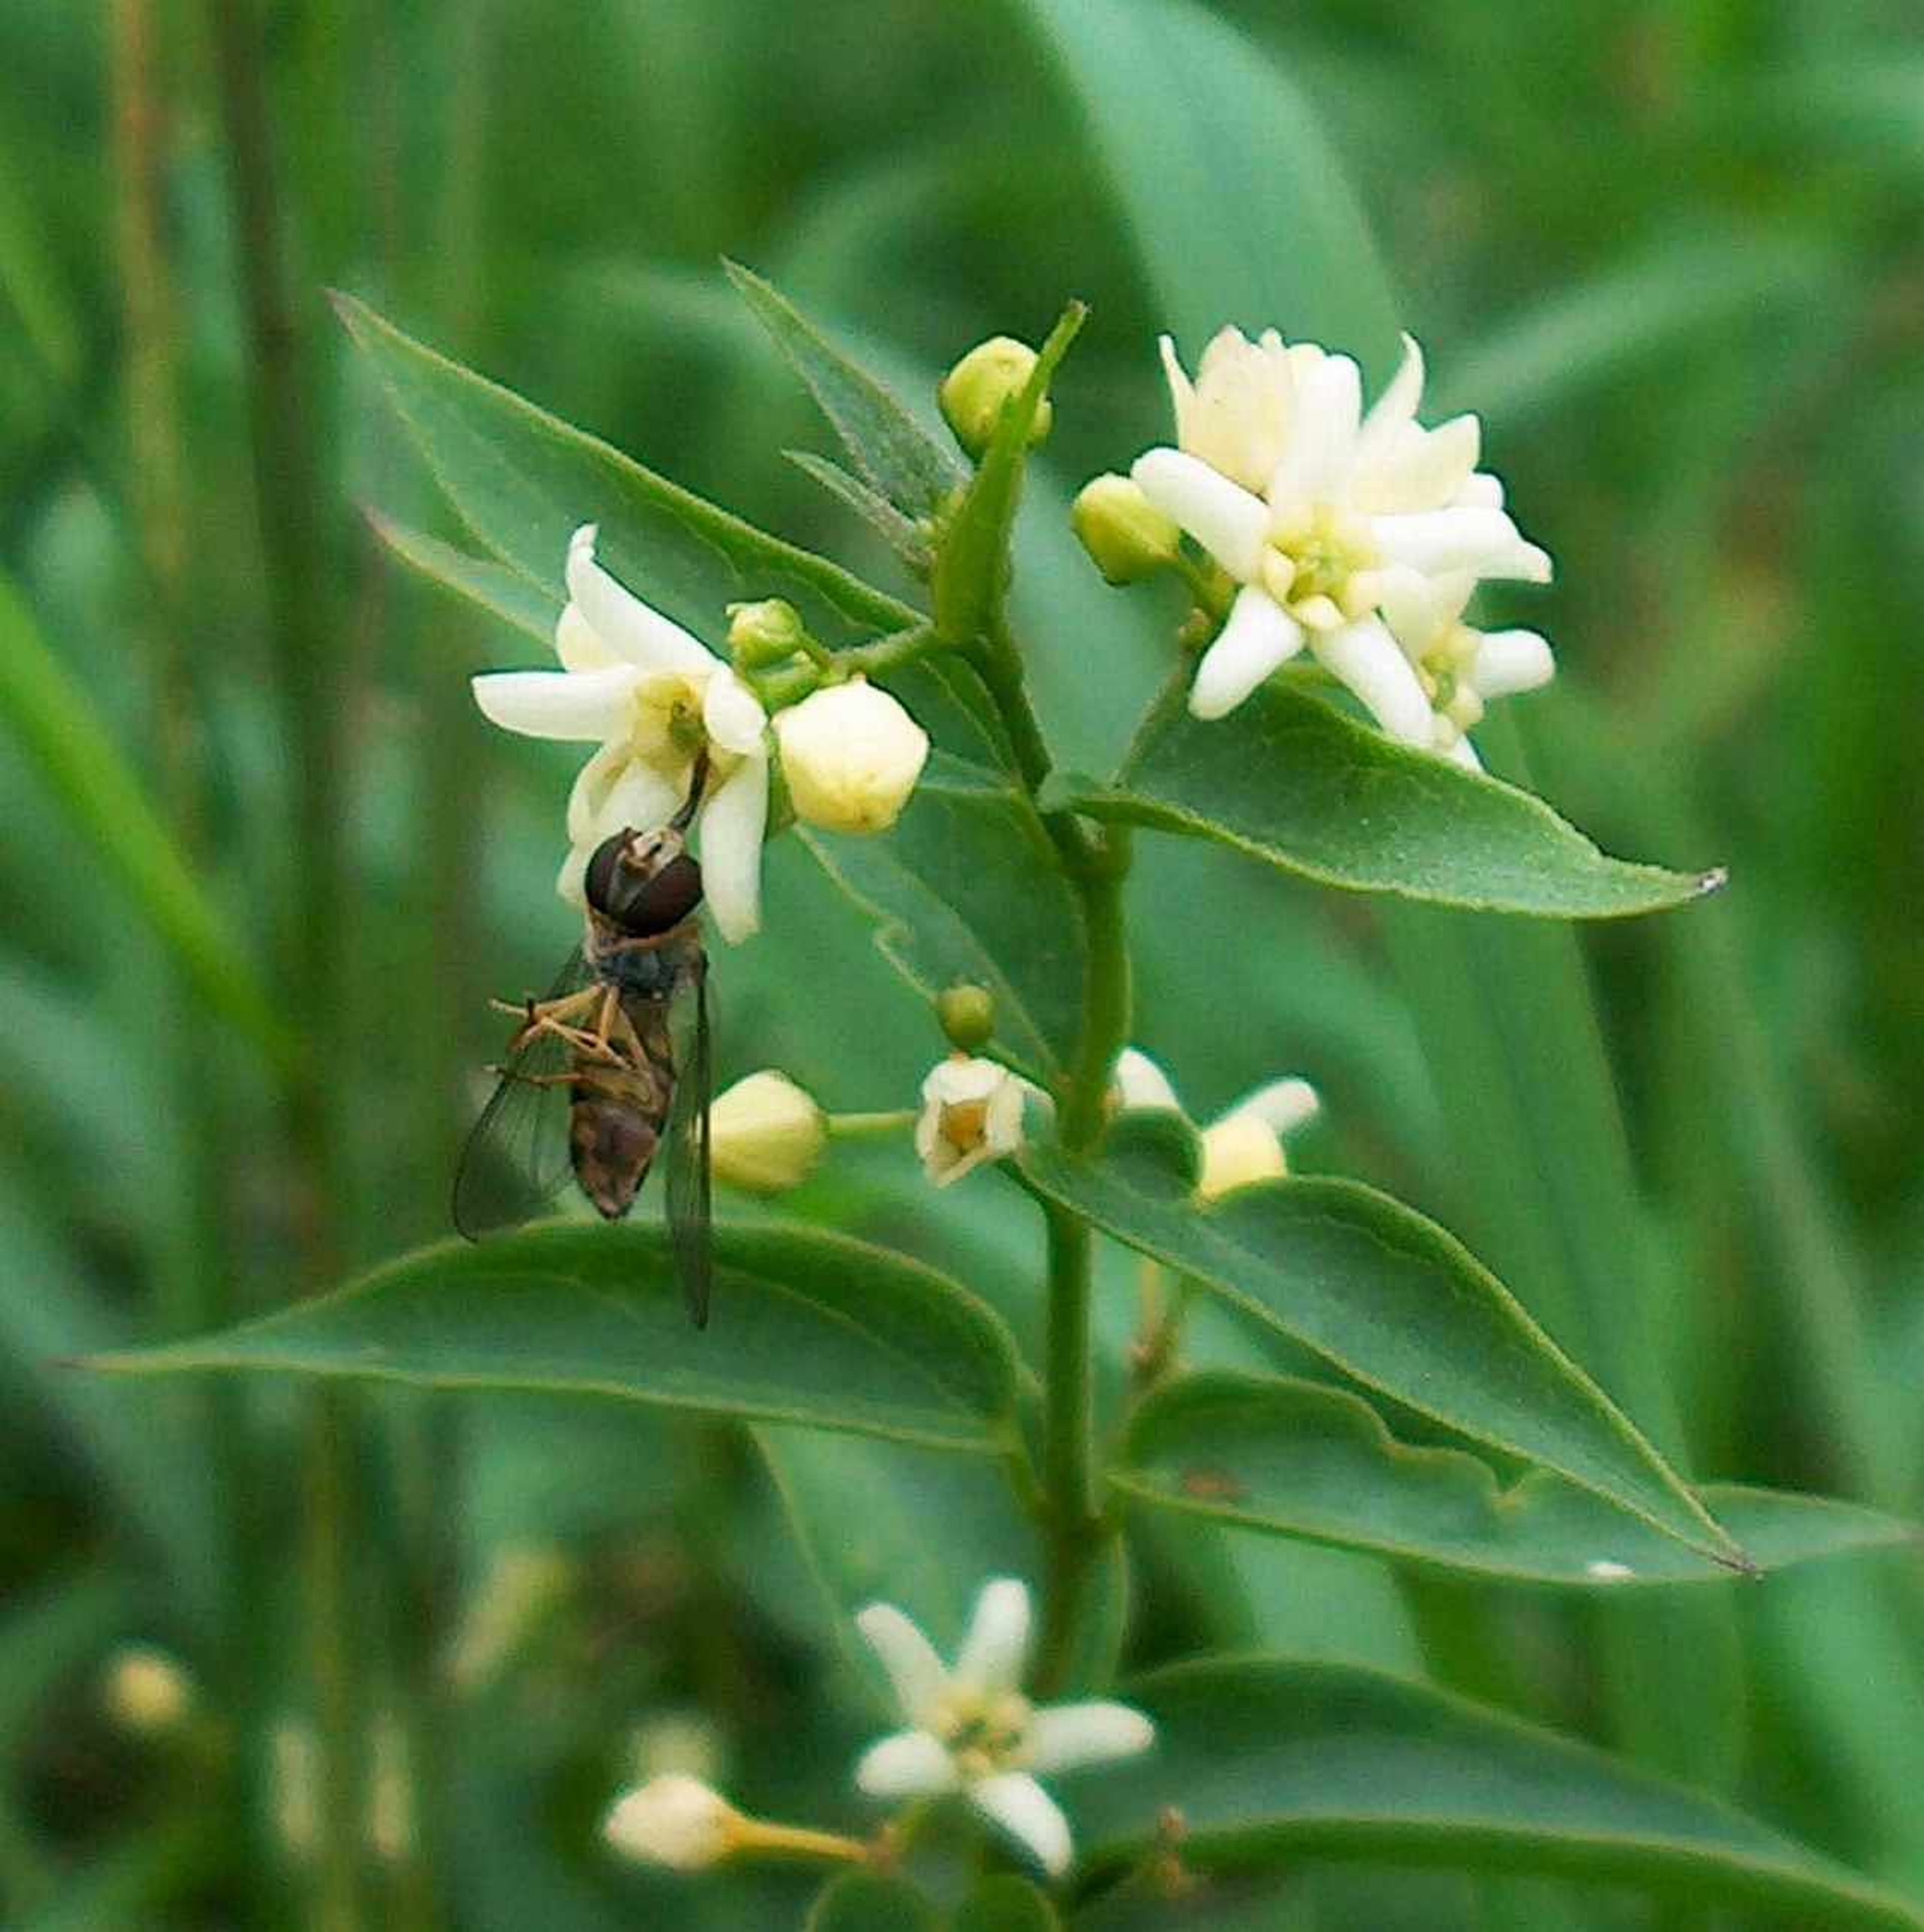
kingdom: Plantae
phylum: Tracheophyta
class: Magnoliopsida
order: Gentianales
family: Apocynaceae
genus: Vincetoxicum
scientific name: Vincetoxicum hirundinaria
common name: Svalerod
